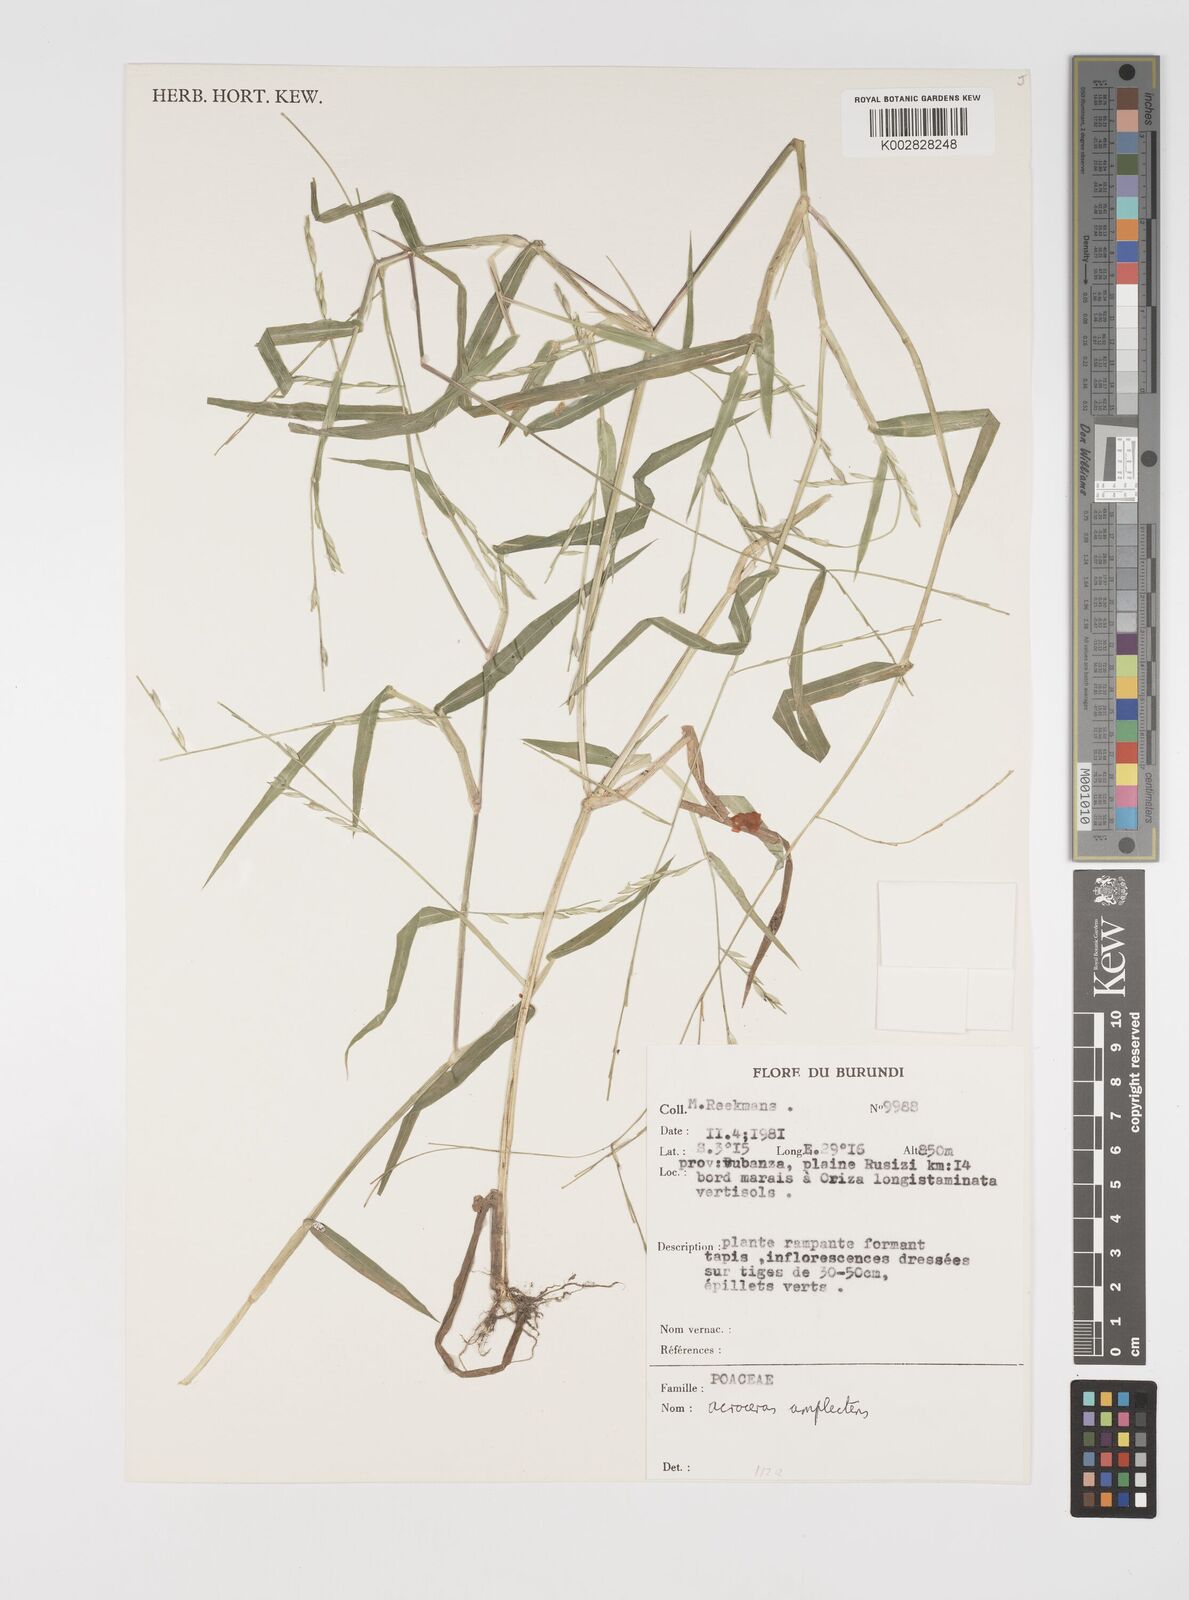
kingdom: Plantae
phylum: Tracheophyta
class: Liliopsida
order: Poales
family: Poaceae
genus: Acroceras
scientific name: Acroceras amplectens
